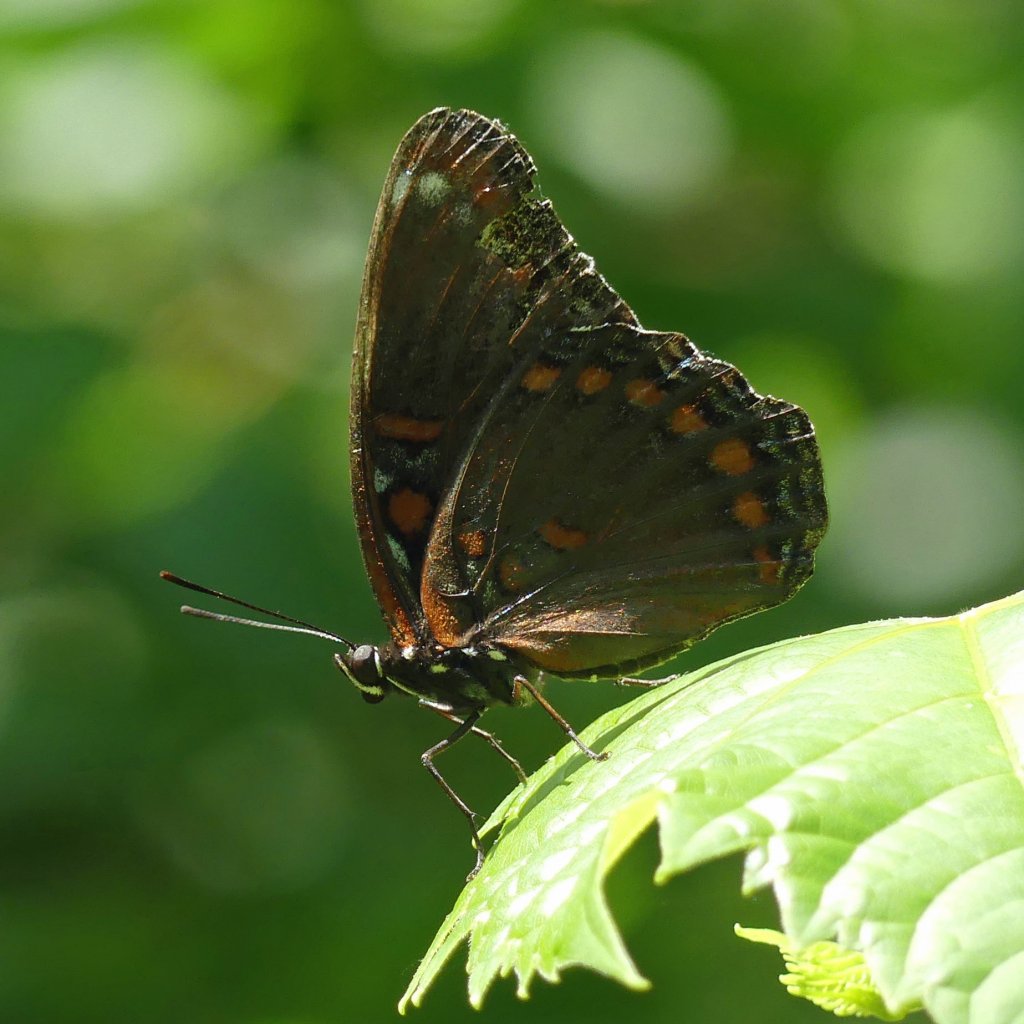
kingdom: Animalia
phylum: Arthropoda
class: Insecta
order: Lepidoptera
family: Nymphalidae
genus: Limenitis
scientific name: Limenitis astyanax
